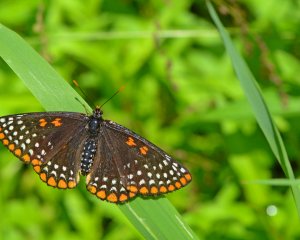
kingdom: Animalia
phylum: Arthropoda
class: Insecta
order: Lepidoptera
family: Nymphalidae
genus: Euphydryas
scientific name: Euphydryas phaeton
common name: Baltimore Checkerspot
